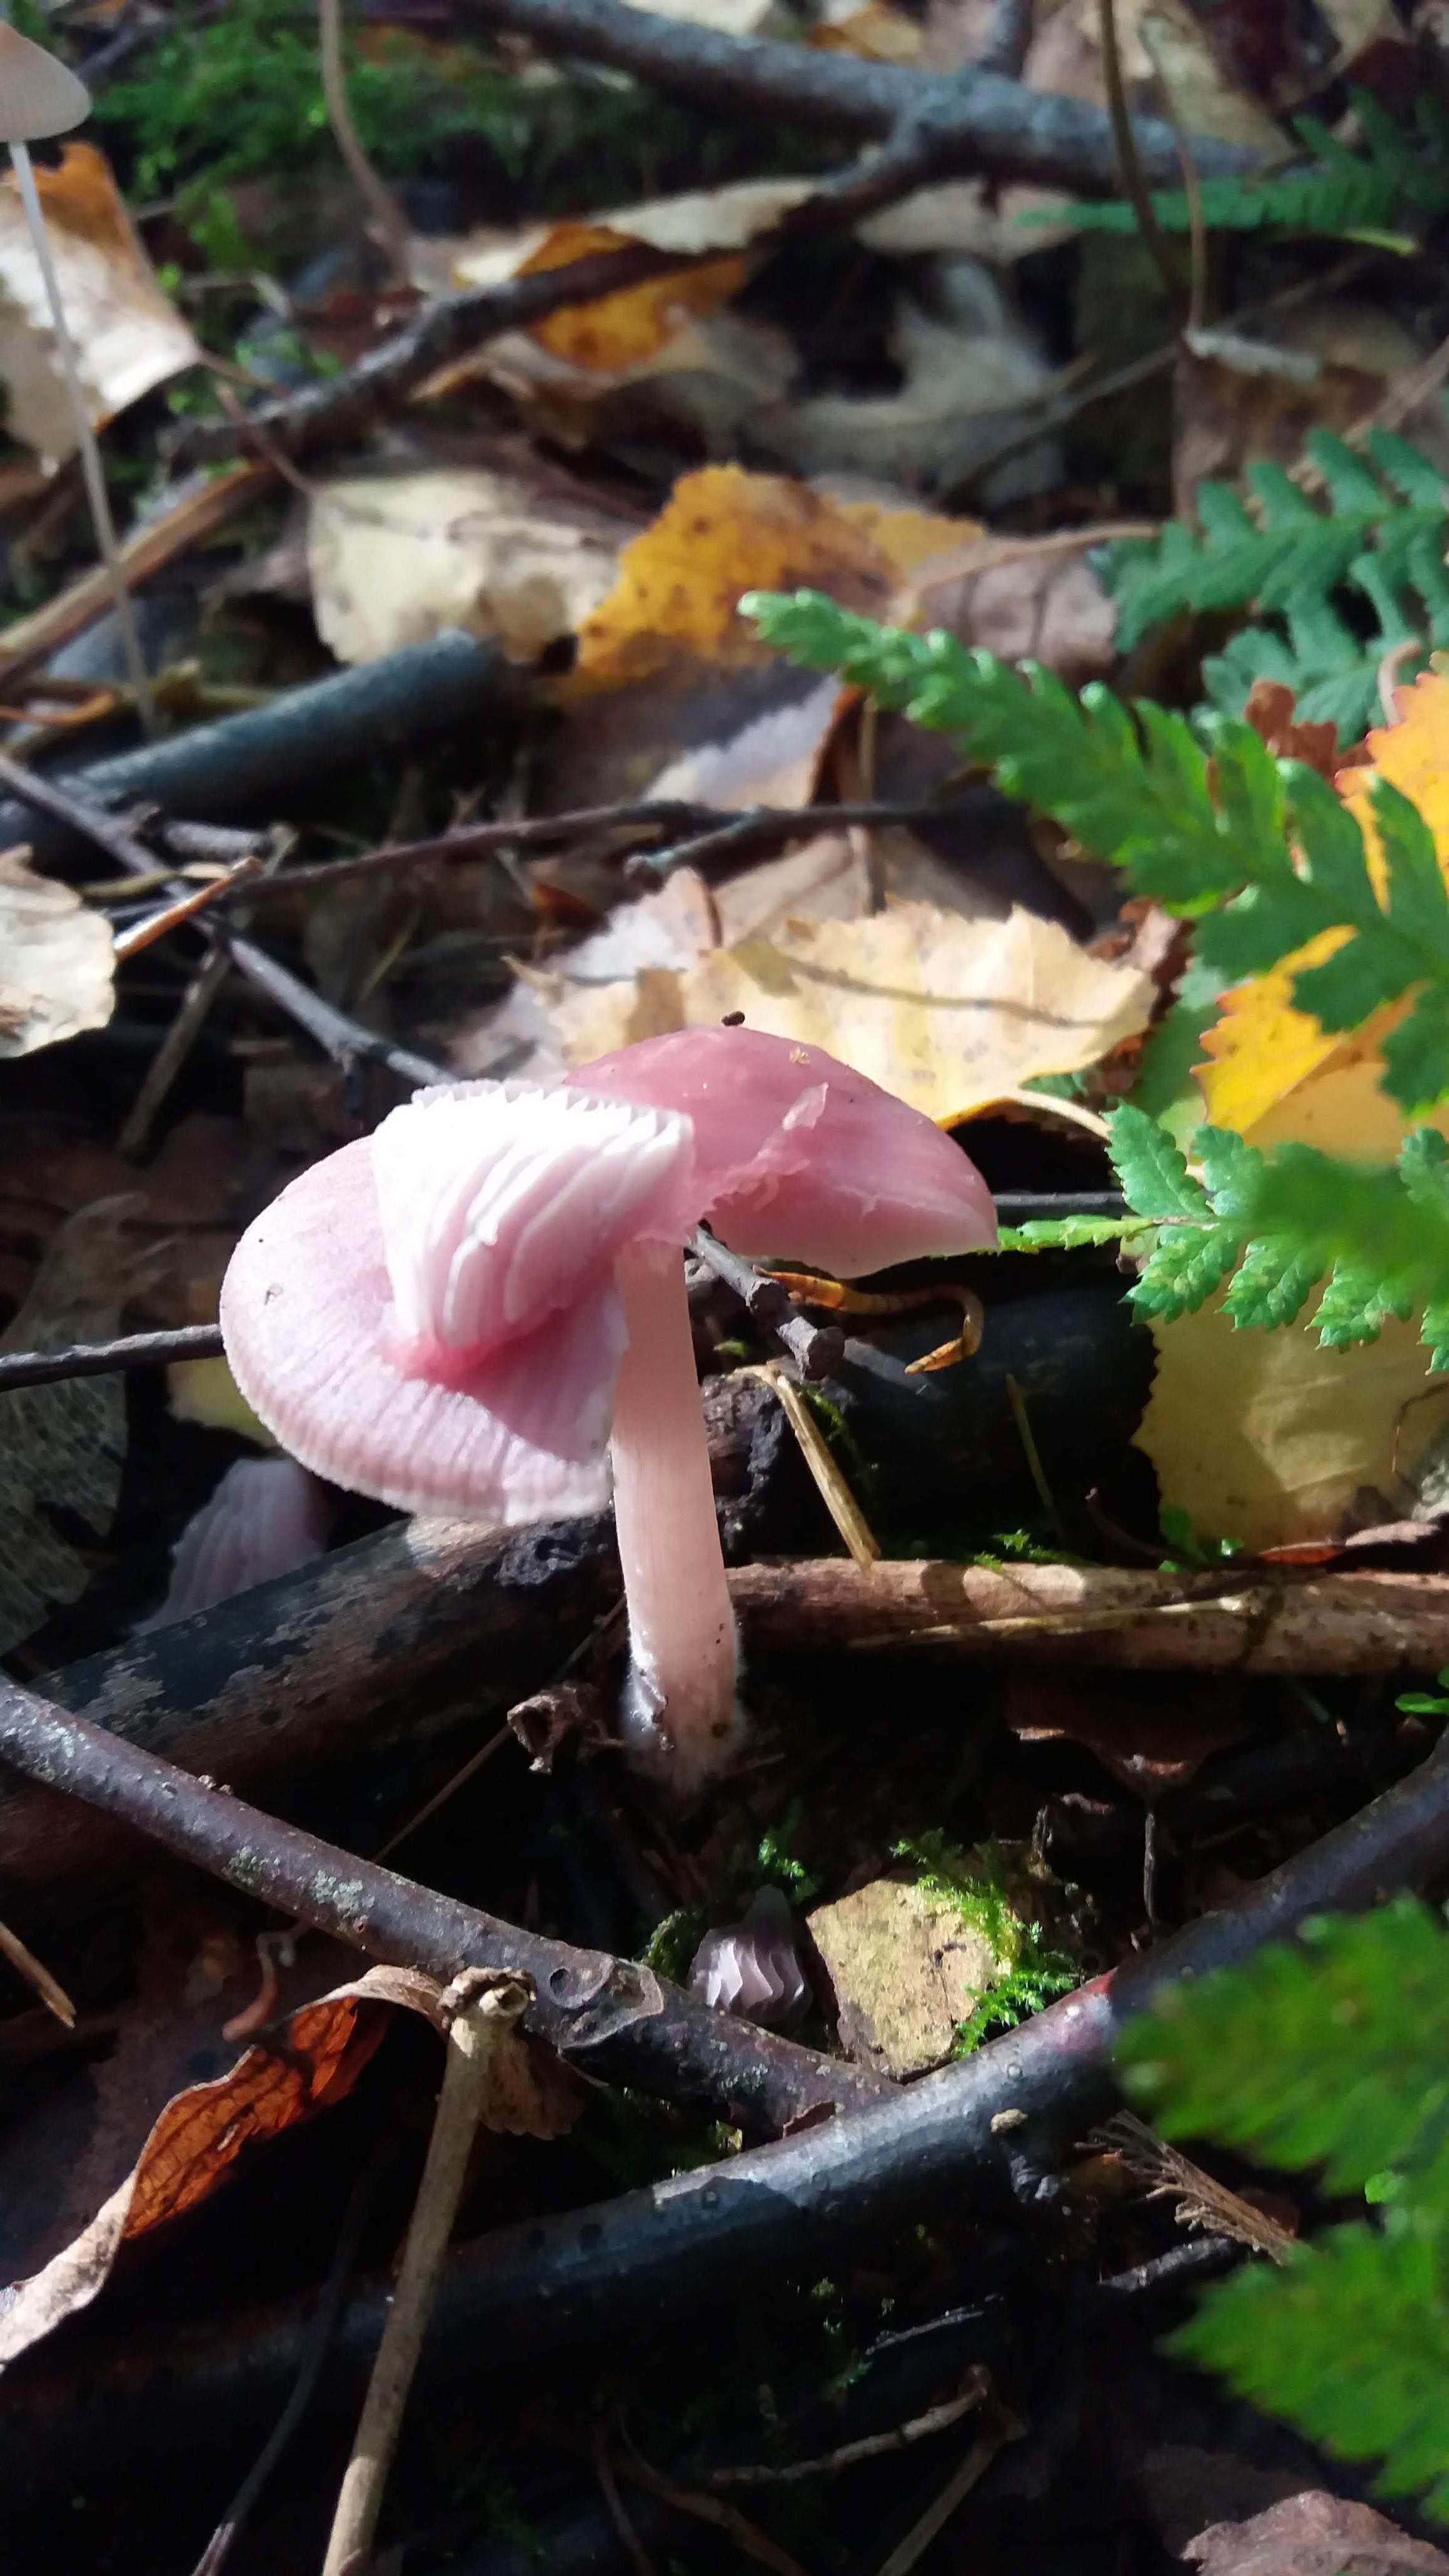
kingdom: Fungi
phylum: Basidiomycota
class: Agaricomycetes
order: Agaricales
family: Mycenaceae
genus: Mycena
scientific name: Mycena rosea
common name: rosa huesvamp
